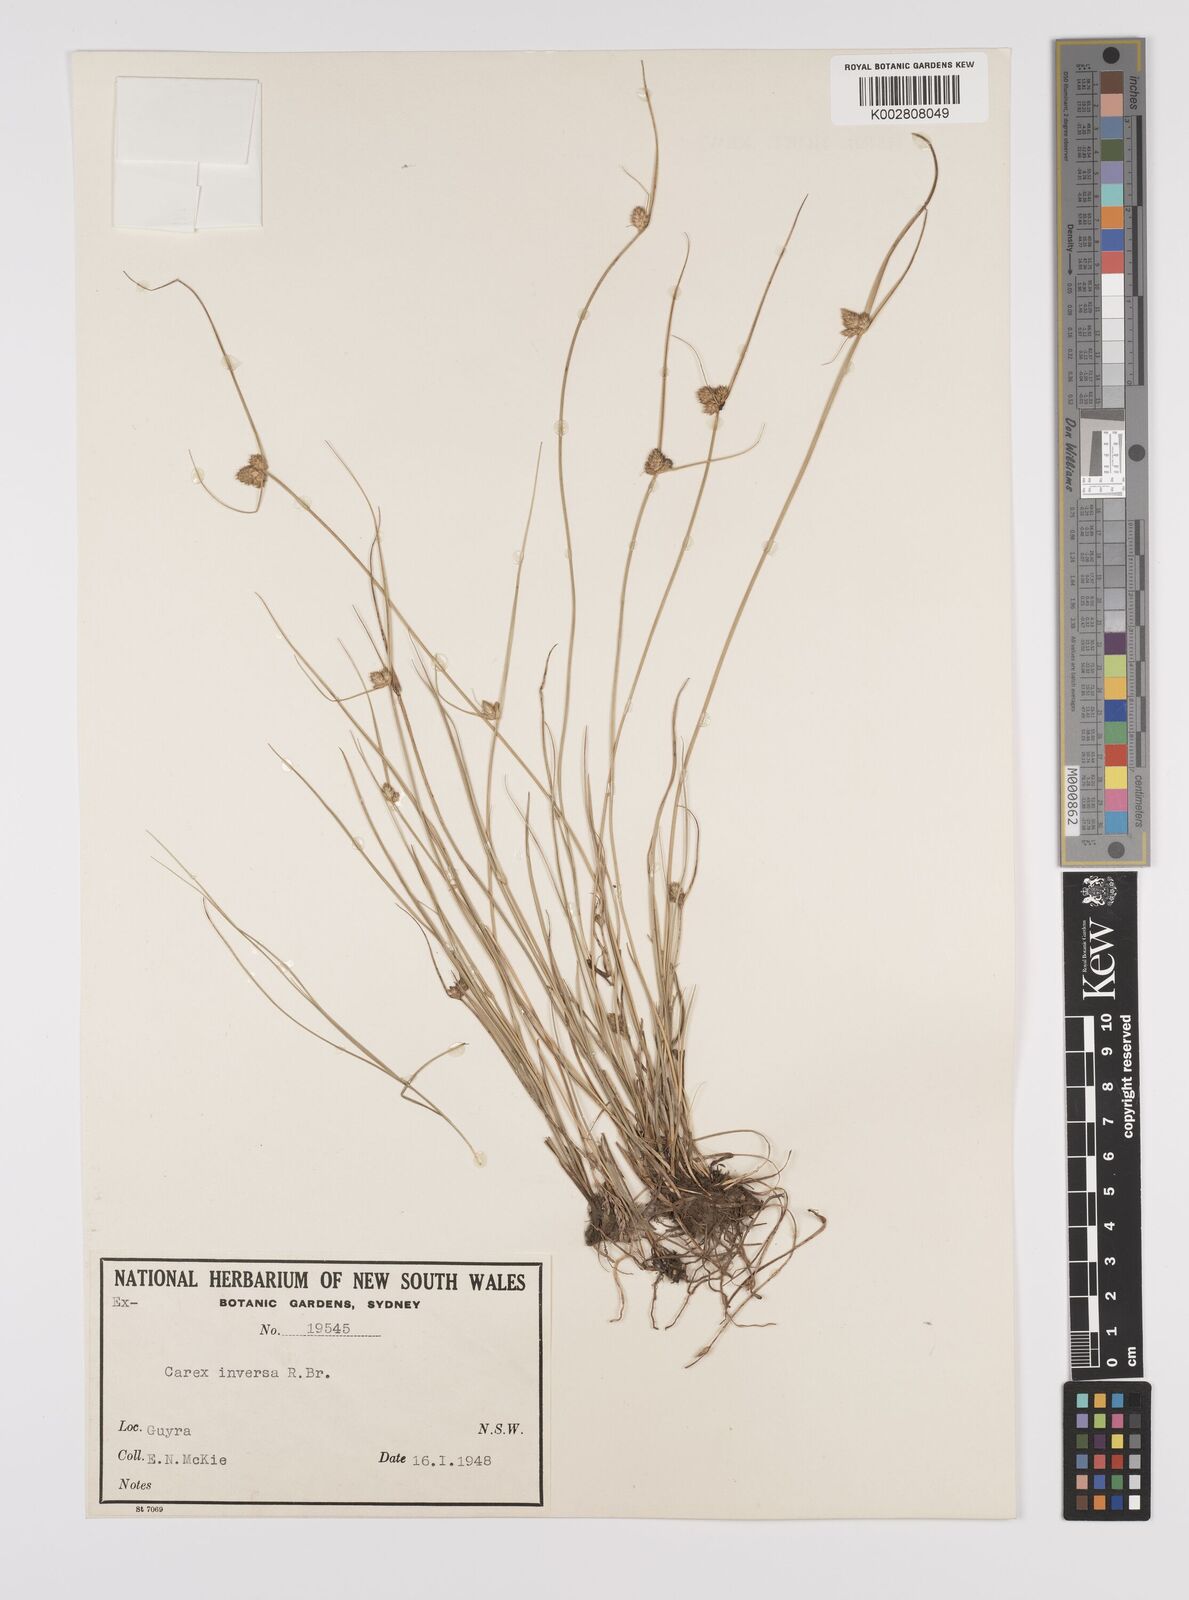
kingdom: Plantae
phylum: Tracheophyta
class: Liliopsida
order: Poales
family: Cyperaceae
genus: Carex
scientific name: Carex inversa
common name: Knob sedge
